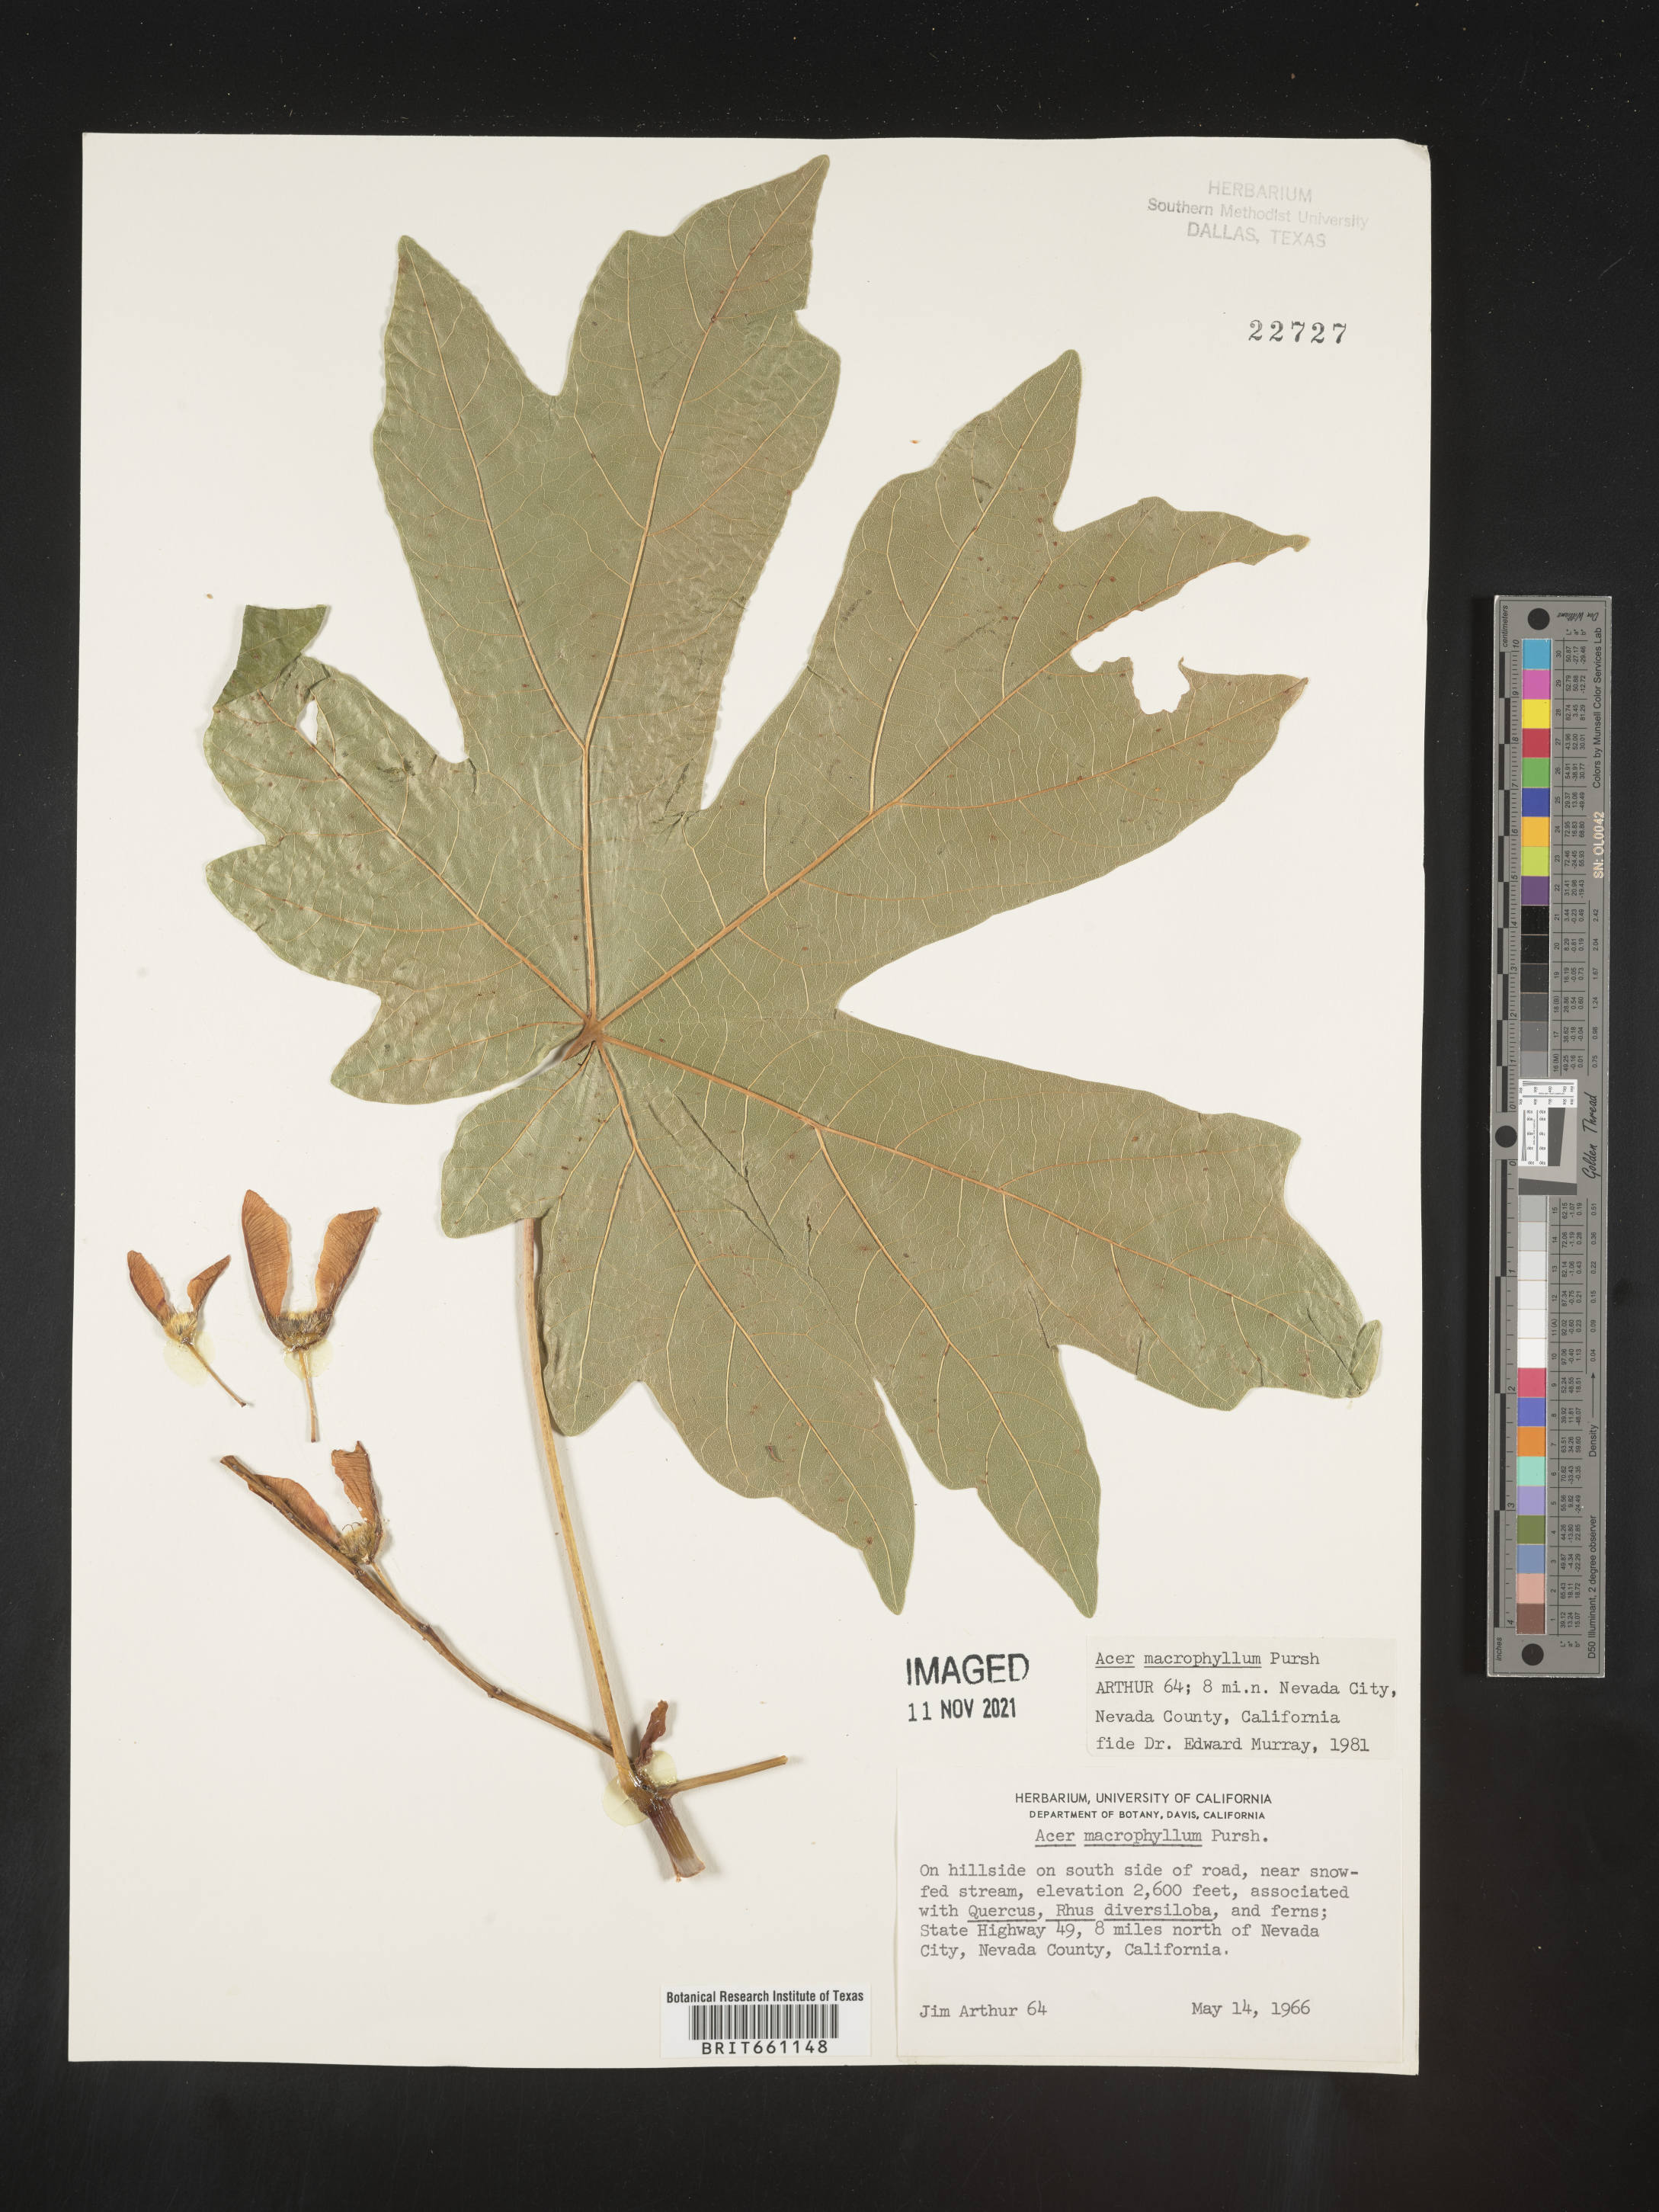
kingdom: Plantae
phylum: Tracheophyta
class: Magnoliopsida
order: Sapindales
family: Sapindaceae
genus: Acer
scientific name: Acer macrophyllum
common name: Oregon maple
